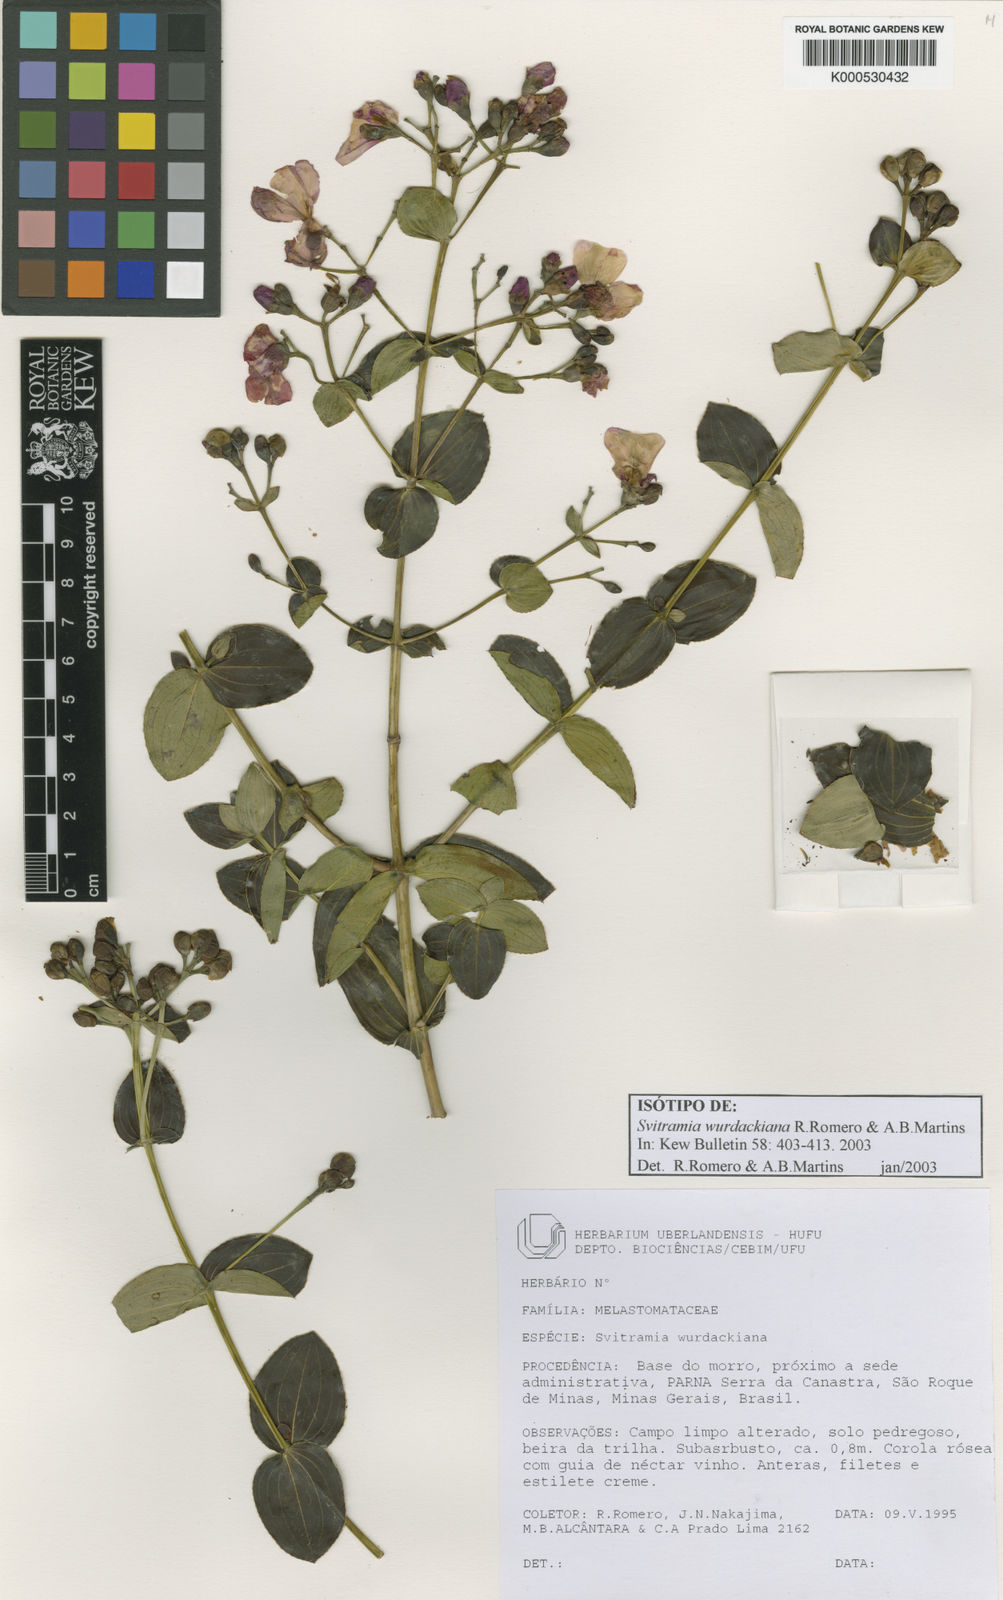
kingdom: Plantae
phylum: Tracheophyta
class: Magnoliopsida
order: Myrtales
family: Melastomataceae
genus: Pleroma
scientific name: Pleroma wurdackianum
